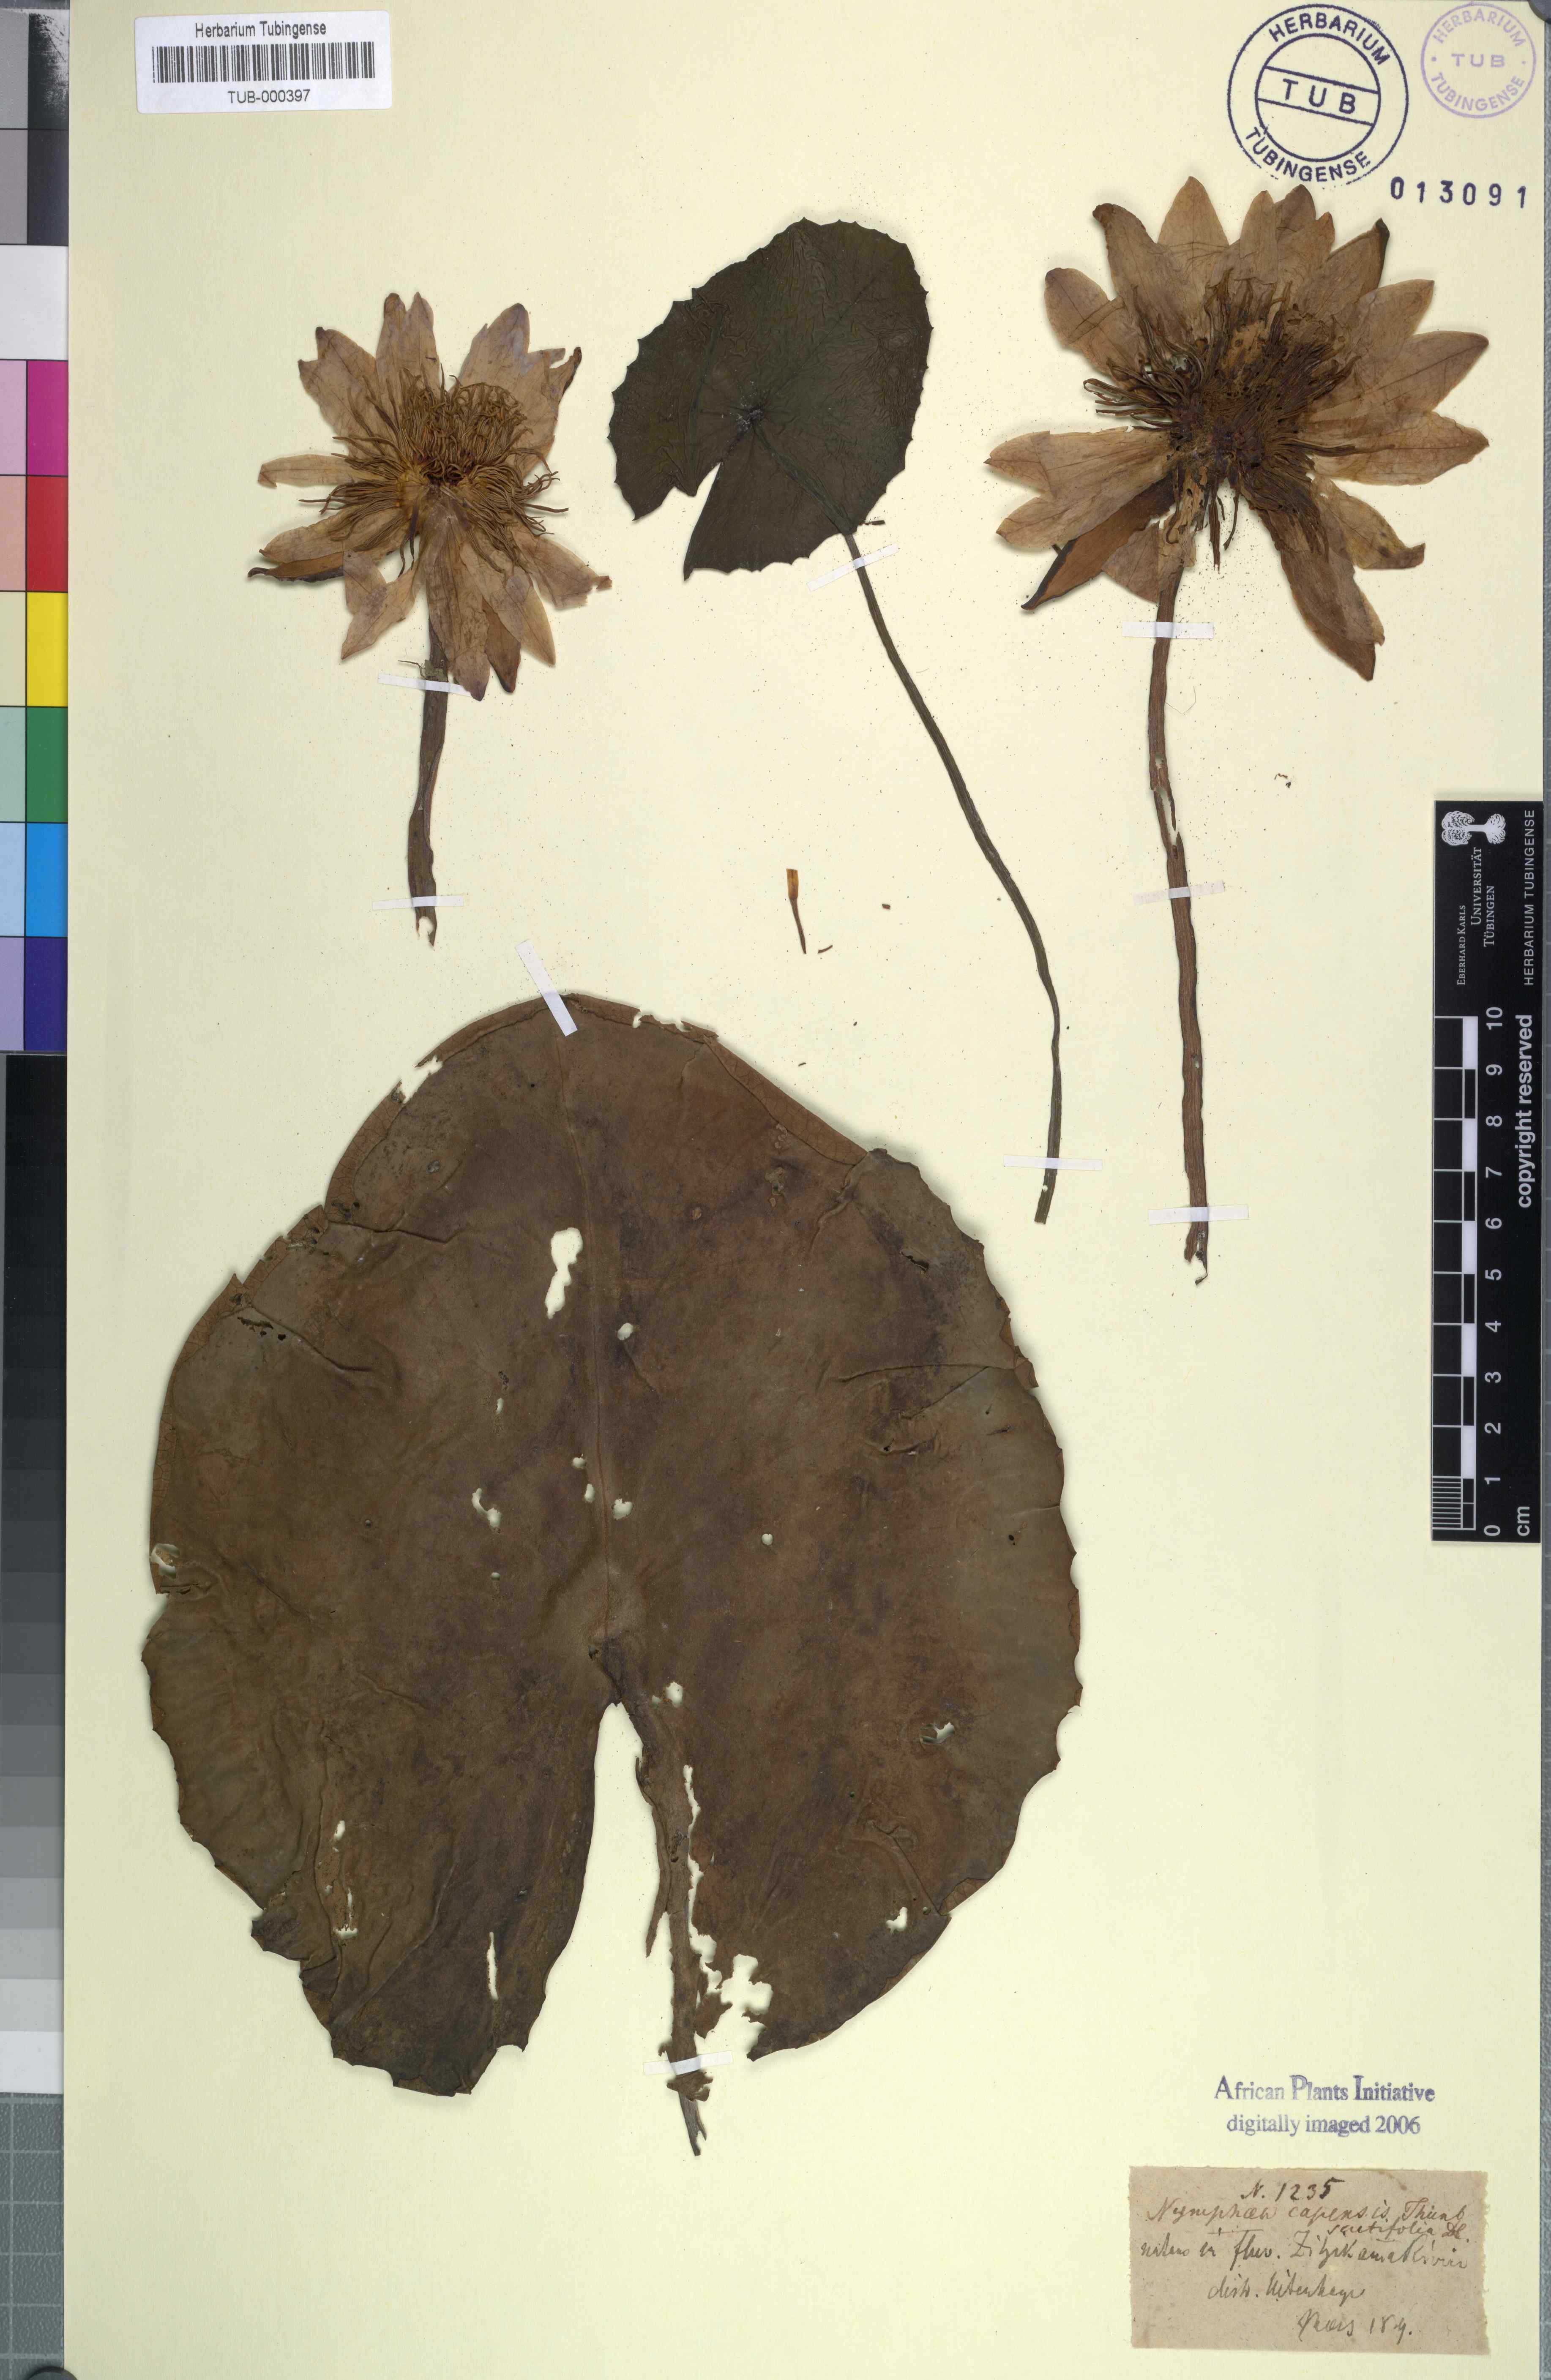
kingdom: Plantae
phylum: Tracheophyta
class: Magnoliopsida
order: Nymphaeales
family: Nymphaeaceae
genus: Nymphaea
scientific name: Nymphaea capensis
